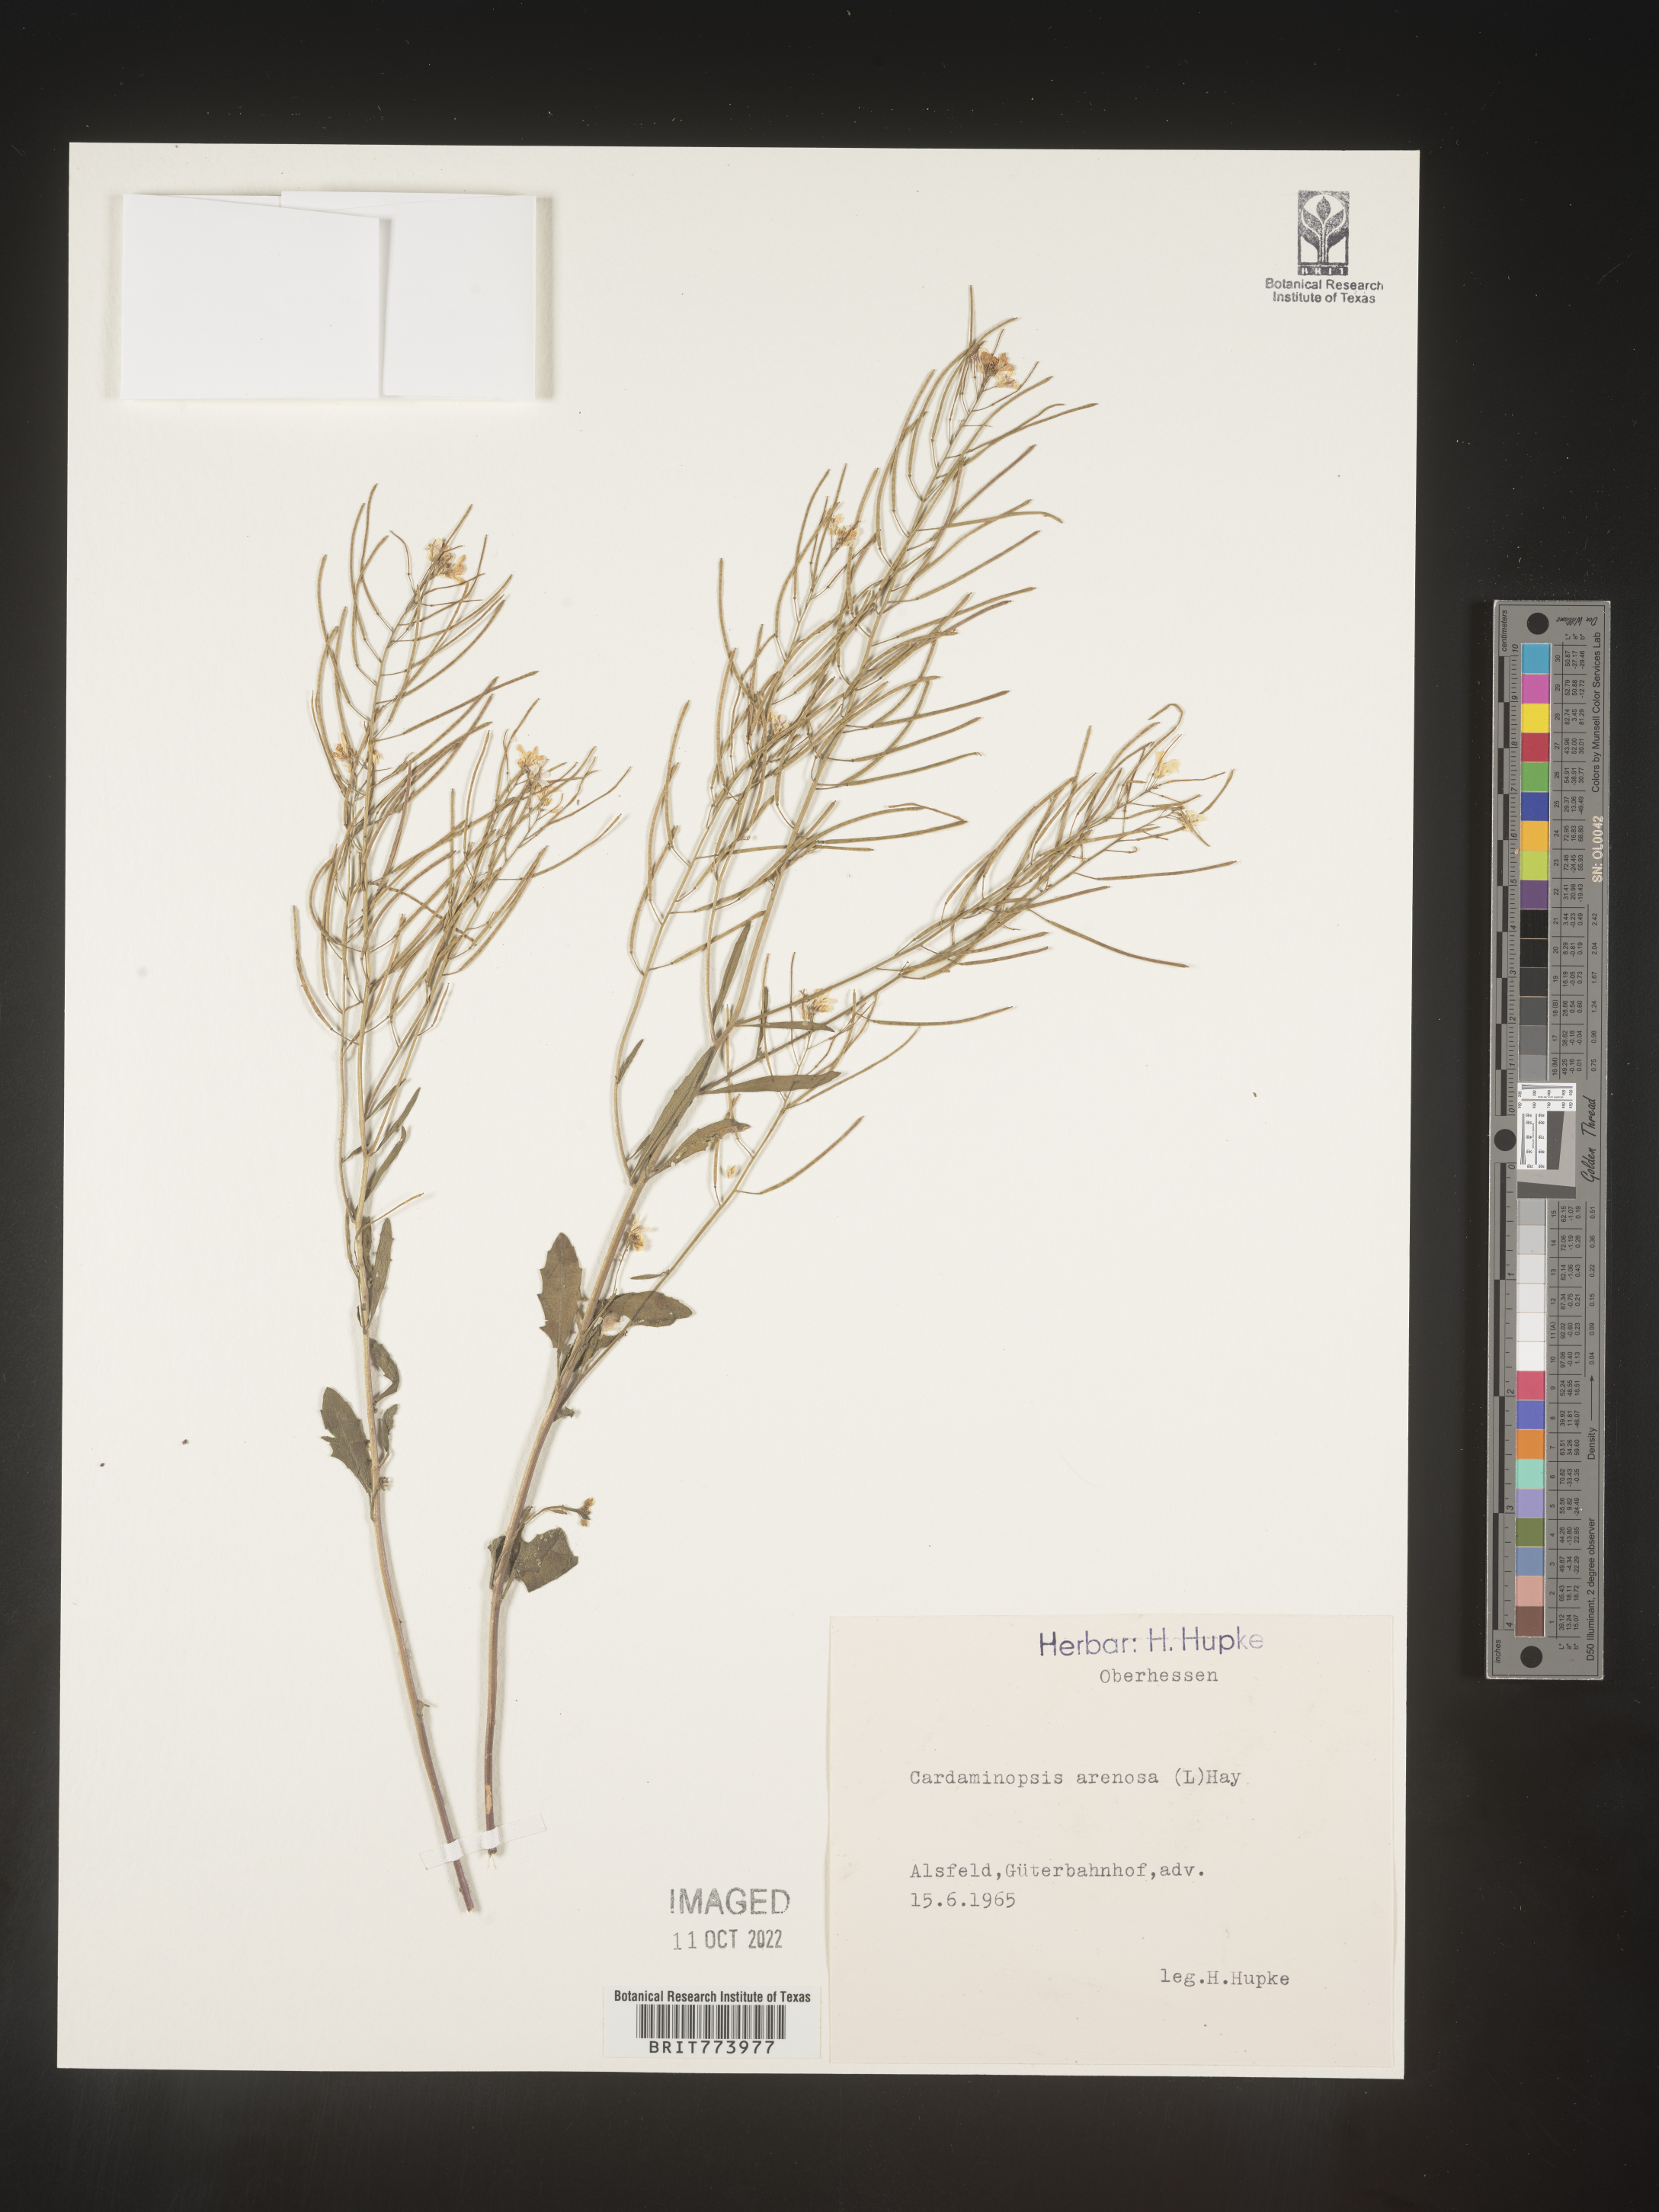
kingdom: Plantae
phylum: Tracheophyta
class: Magnoliopsida
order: Brassicales
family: Brassicaceae
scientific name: Brassicaceae
